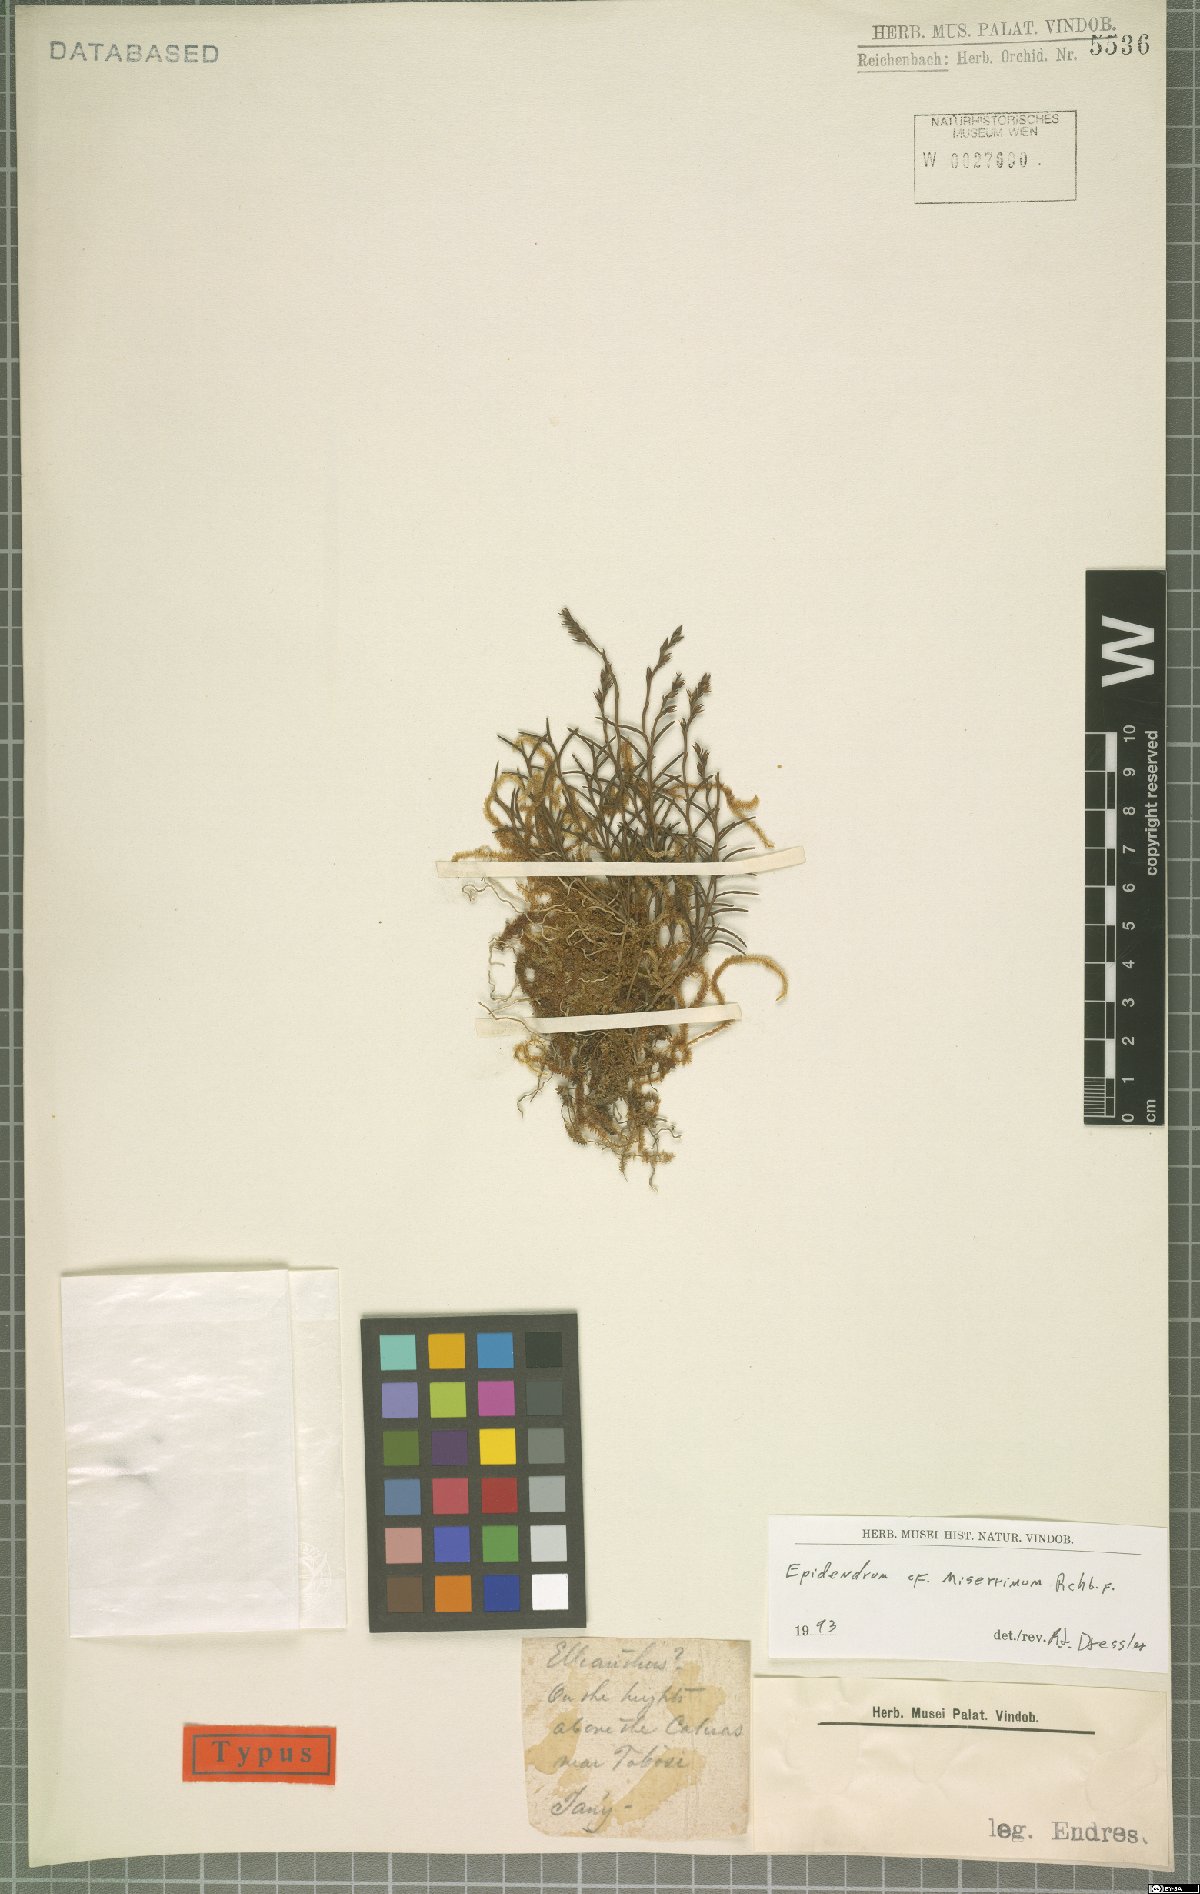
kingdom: Plantae
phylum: Tracheophyta
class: Liliopsida
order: Asparagales
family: Orchidaceae
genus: Epidendrum
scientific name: Epidendrum miserrimum
